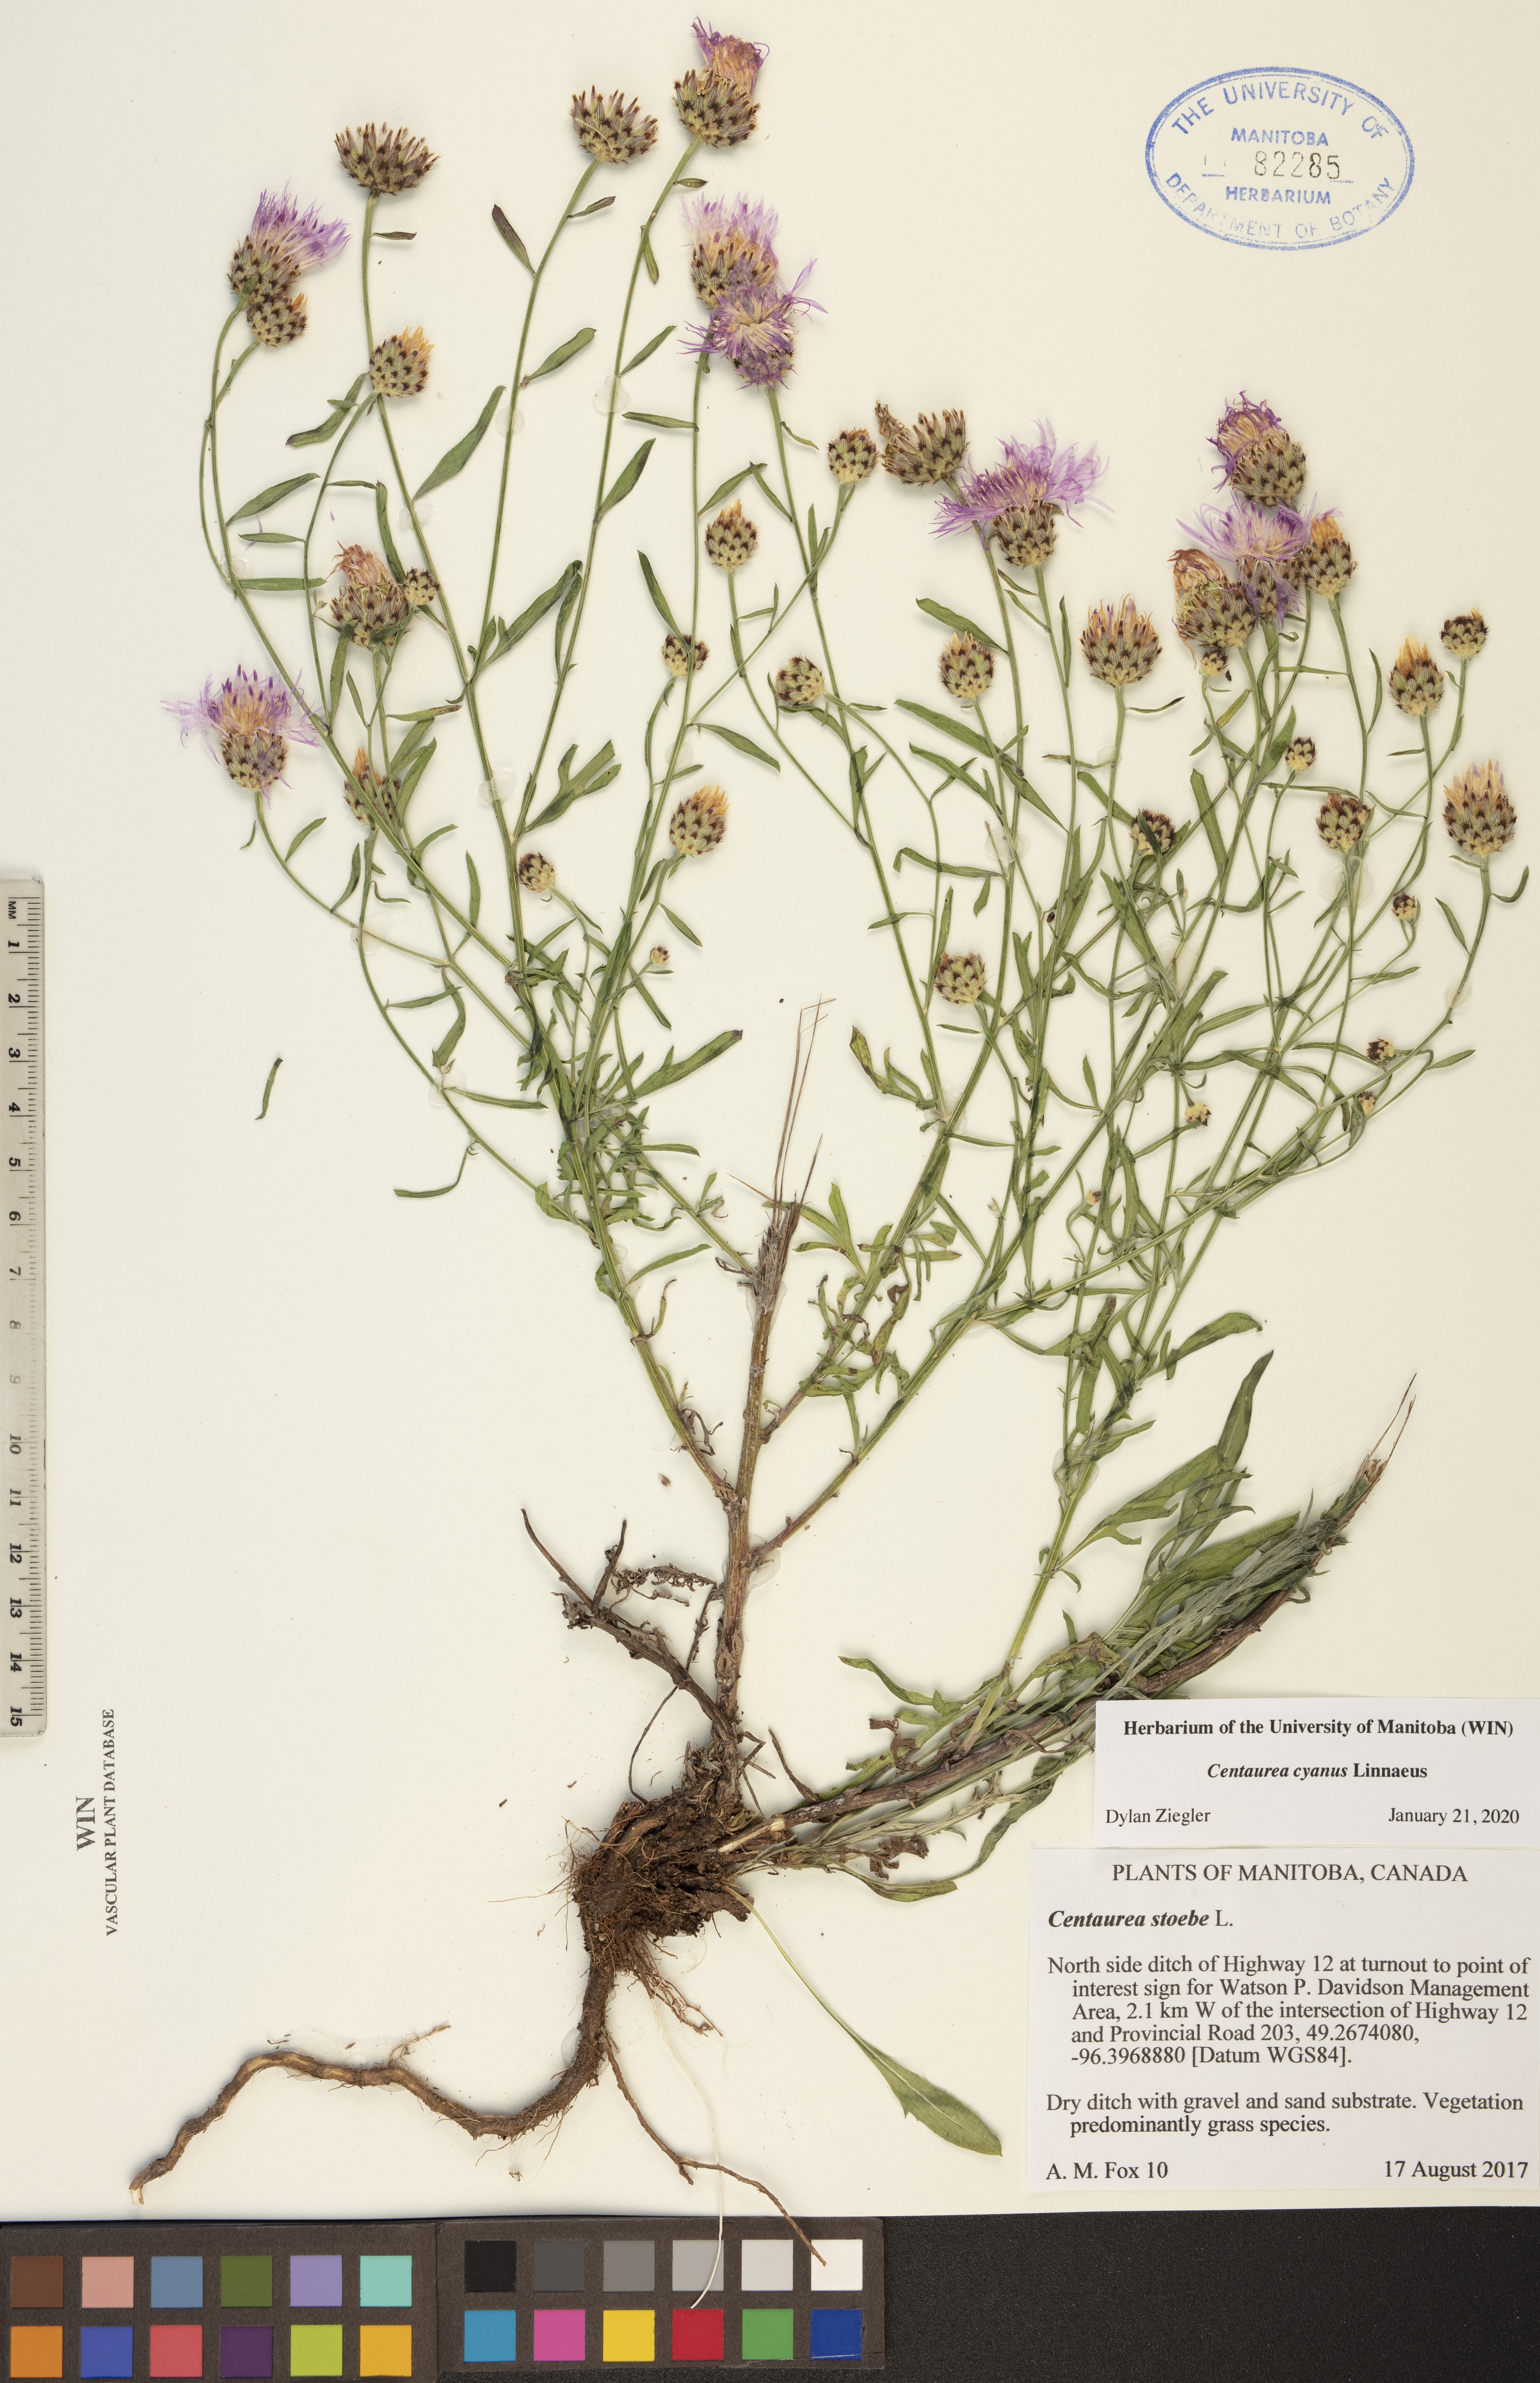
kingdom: Plantae
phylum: Tracheophyta
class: Magnoliopsida
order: Asterales
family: Asteraceae
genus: Centaurea
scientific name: Centaurea cyanus
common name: Cornflower
